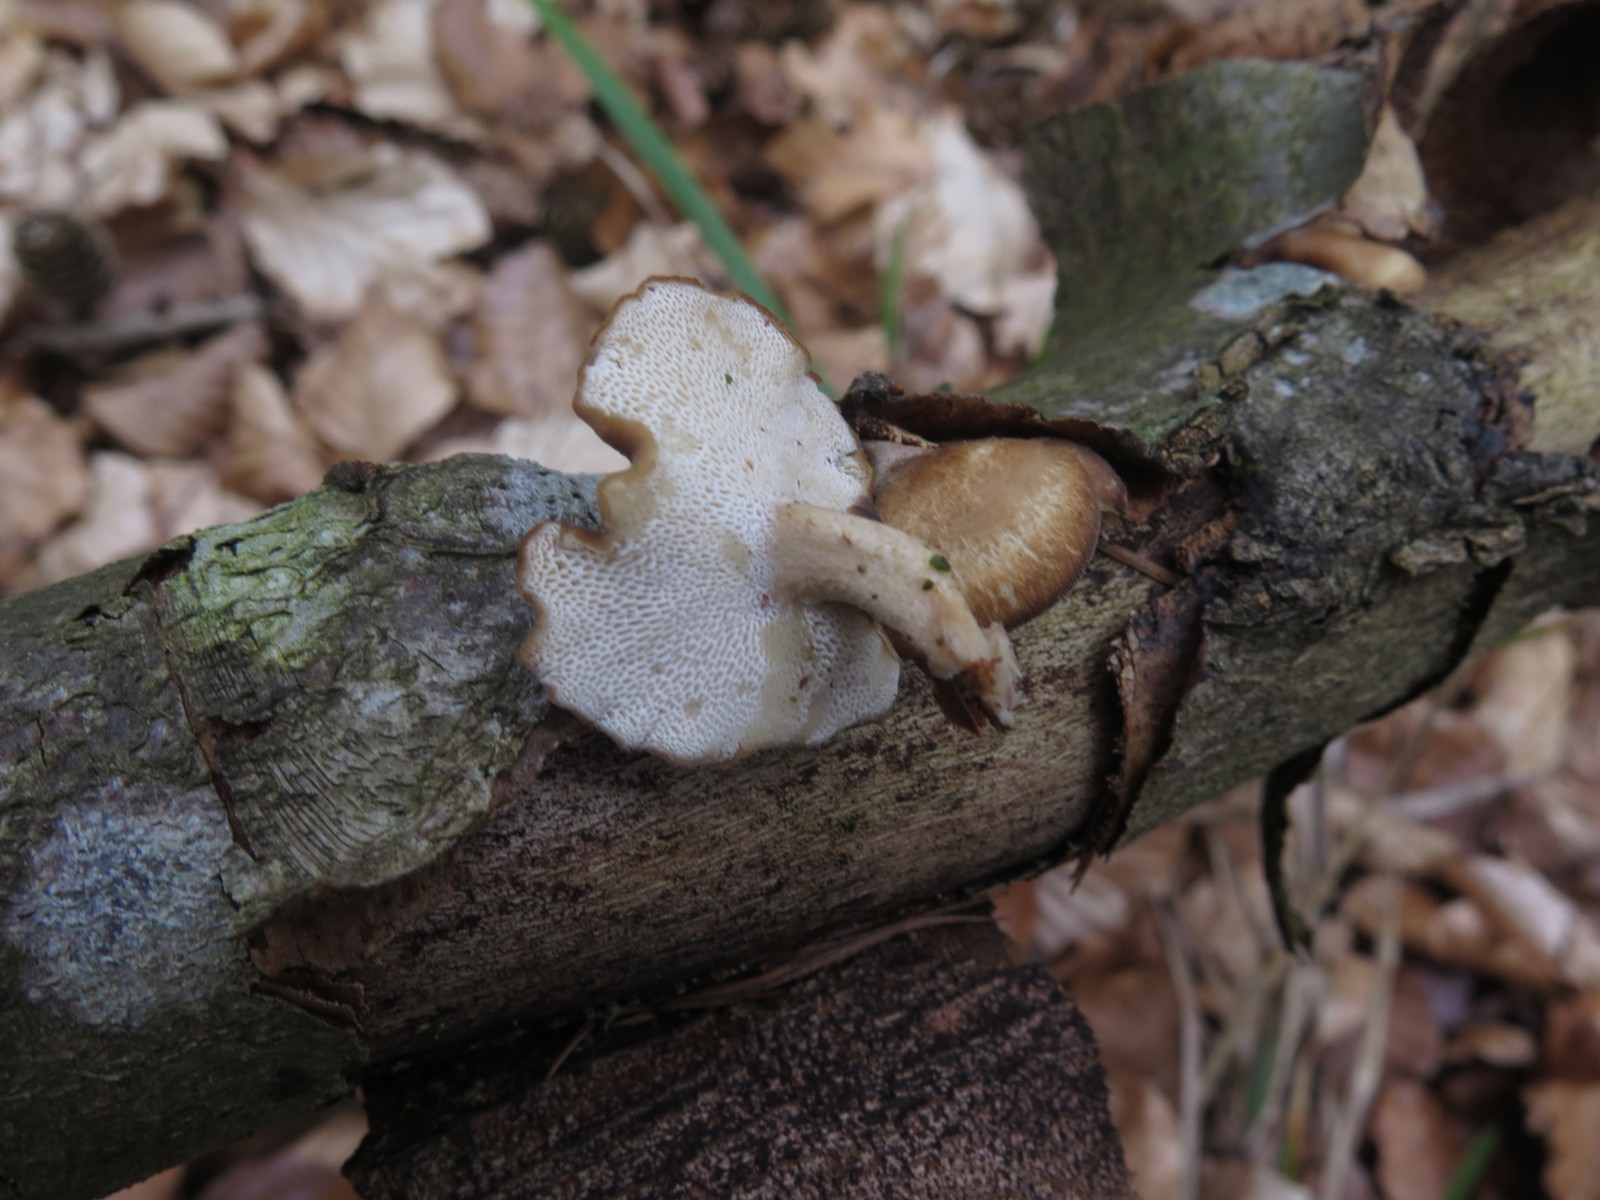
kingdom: Fungi
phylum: Basidiomycota
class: Agaricomycetes
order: Polyporales
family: Polyporaceae
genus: Lentinus
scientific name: Lentinus brumalis
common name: vinter-stilkporesvamp
